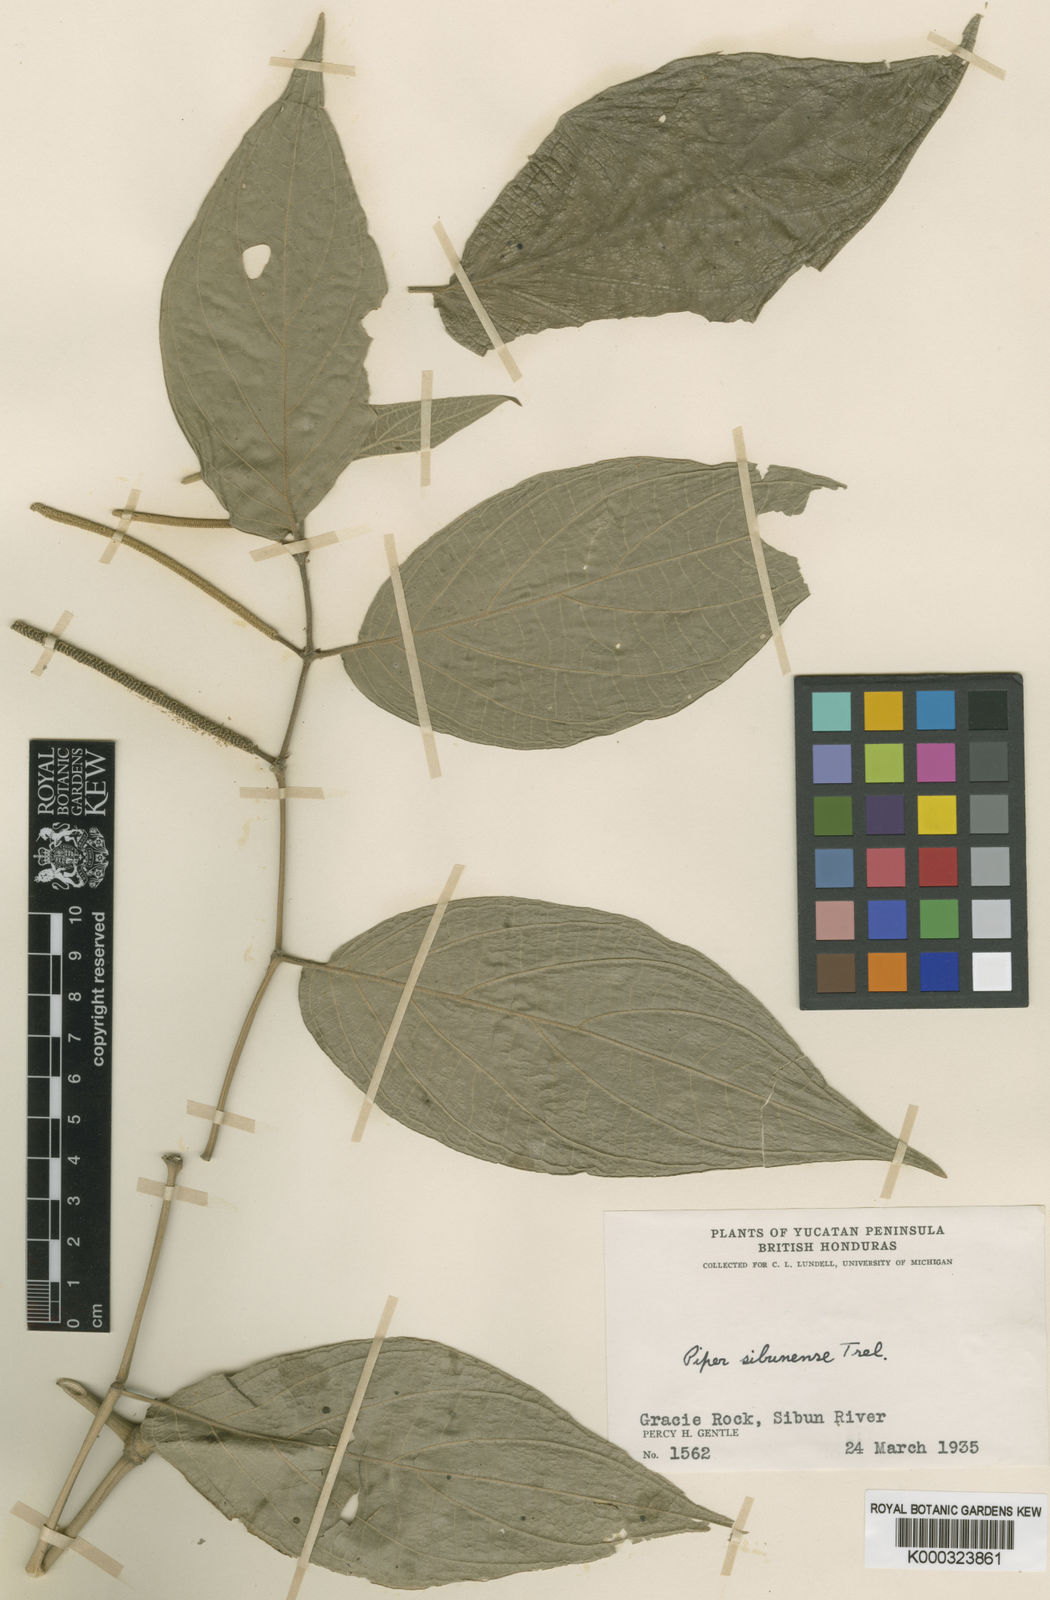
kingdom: Plantae
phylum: Tracheophyta
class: Magnoliopsida
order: Piperales
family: Piperaceae
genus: Piper
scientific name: Piper sibunense
